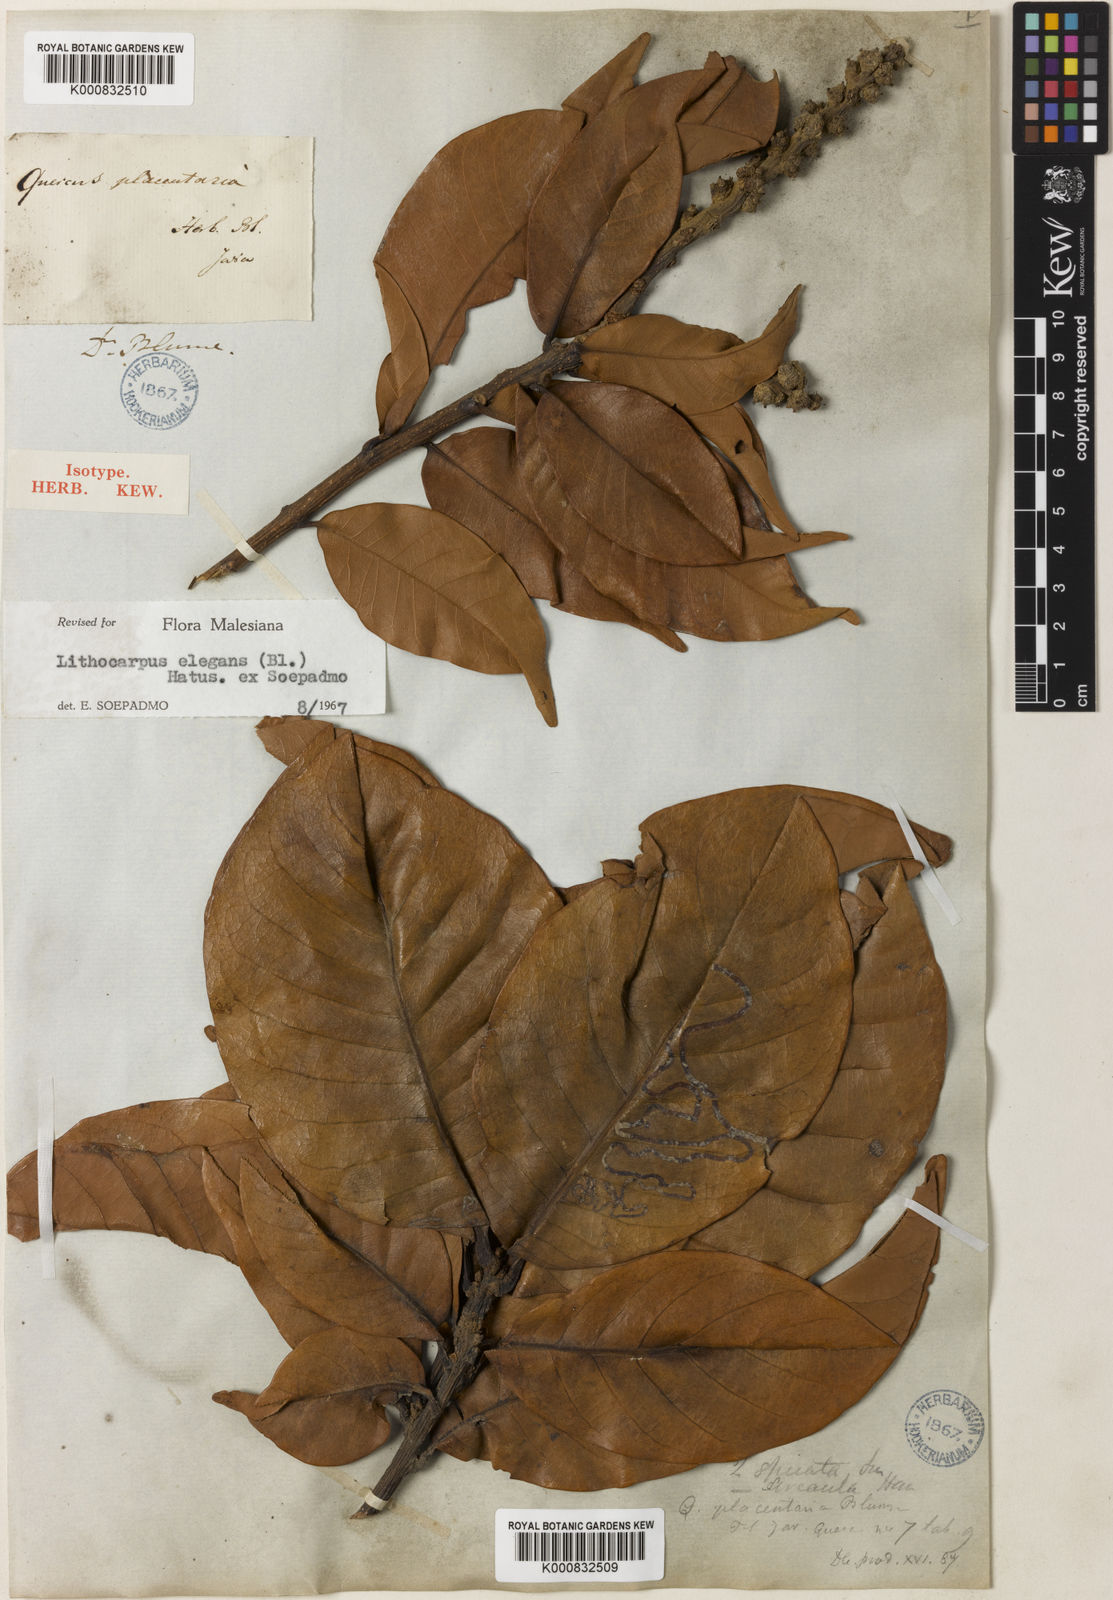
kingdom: Plantae
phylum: Tracheophyta
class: Magnoliopsida
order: Fagales
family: Fagaceae
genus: Lithocarpus
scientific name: Lithocarpus elegans
